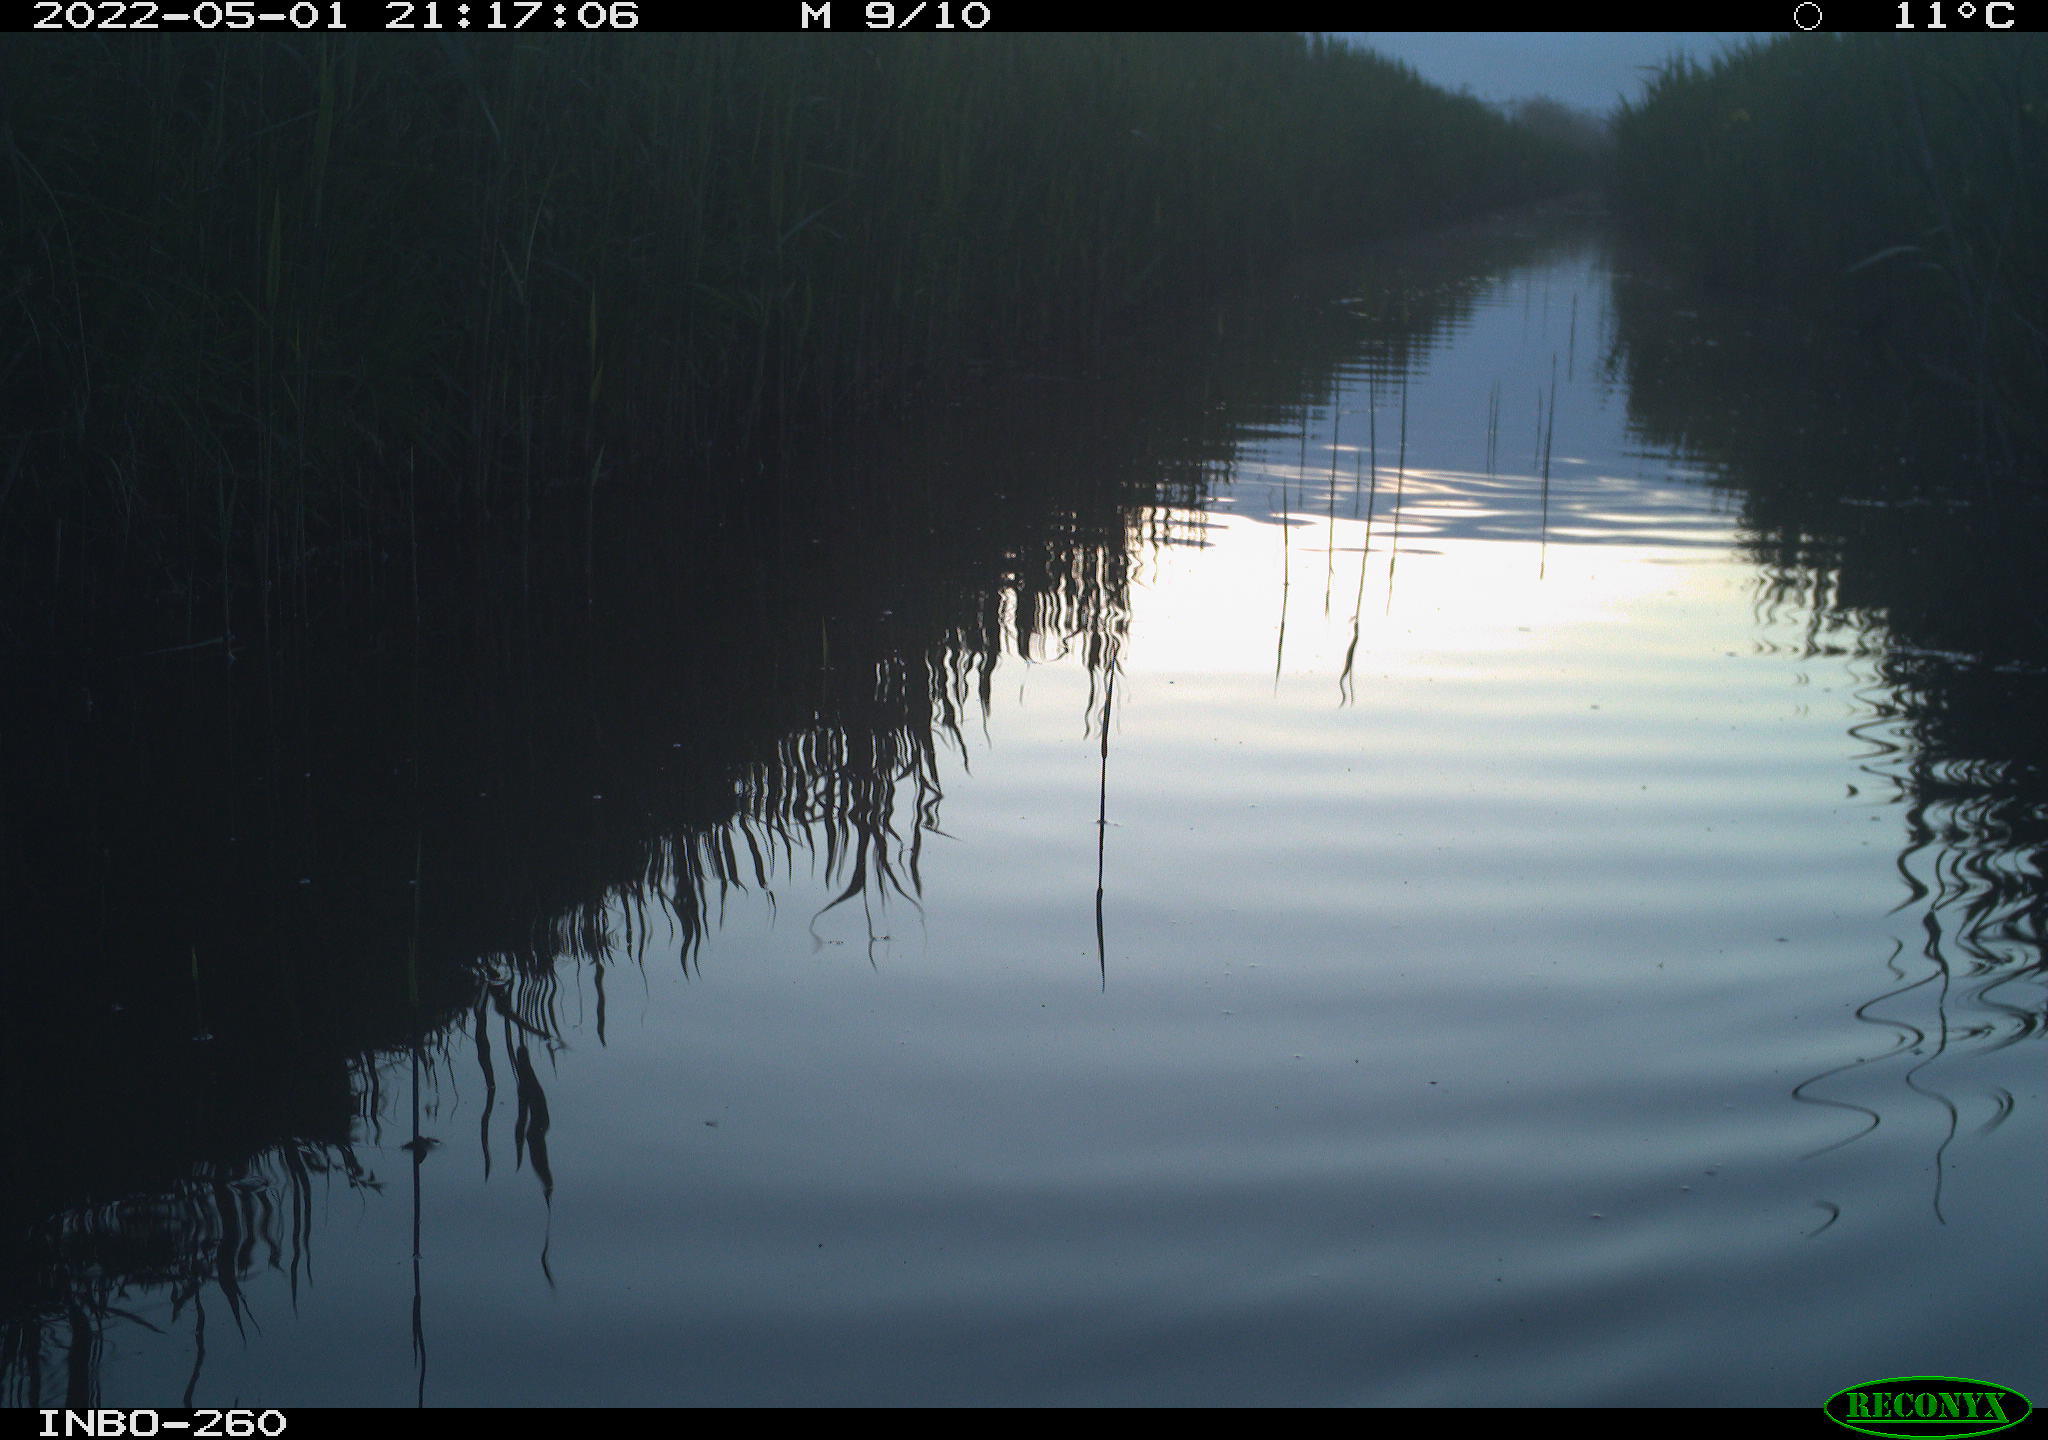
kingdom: Animalia
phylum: Chordata
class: Aves
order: Gruiformes
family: Rallidae
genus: Fulica
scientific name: Fulica atra
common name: Eurasian coot
